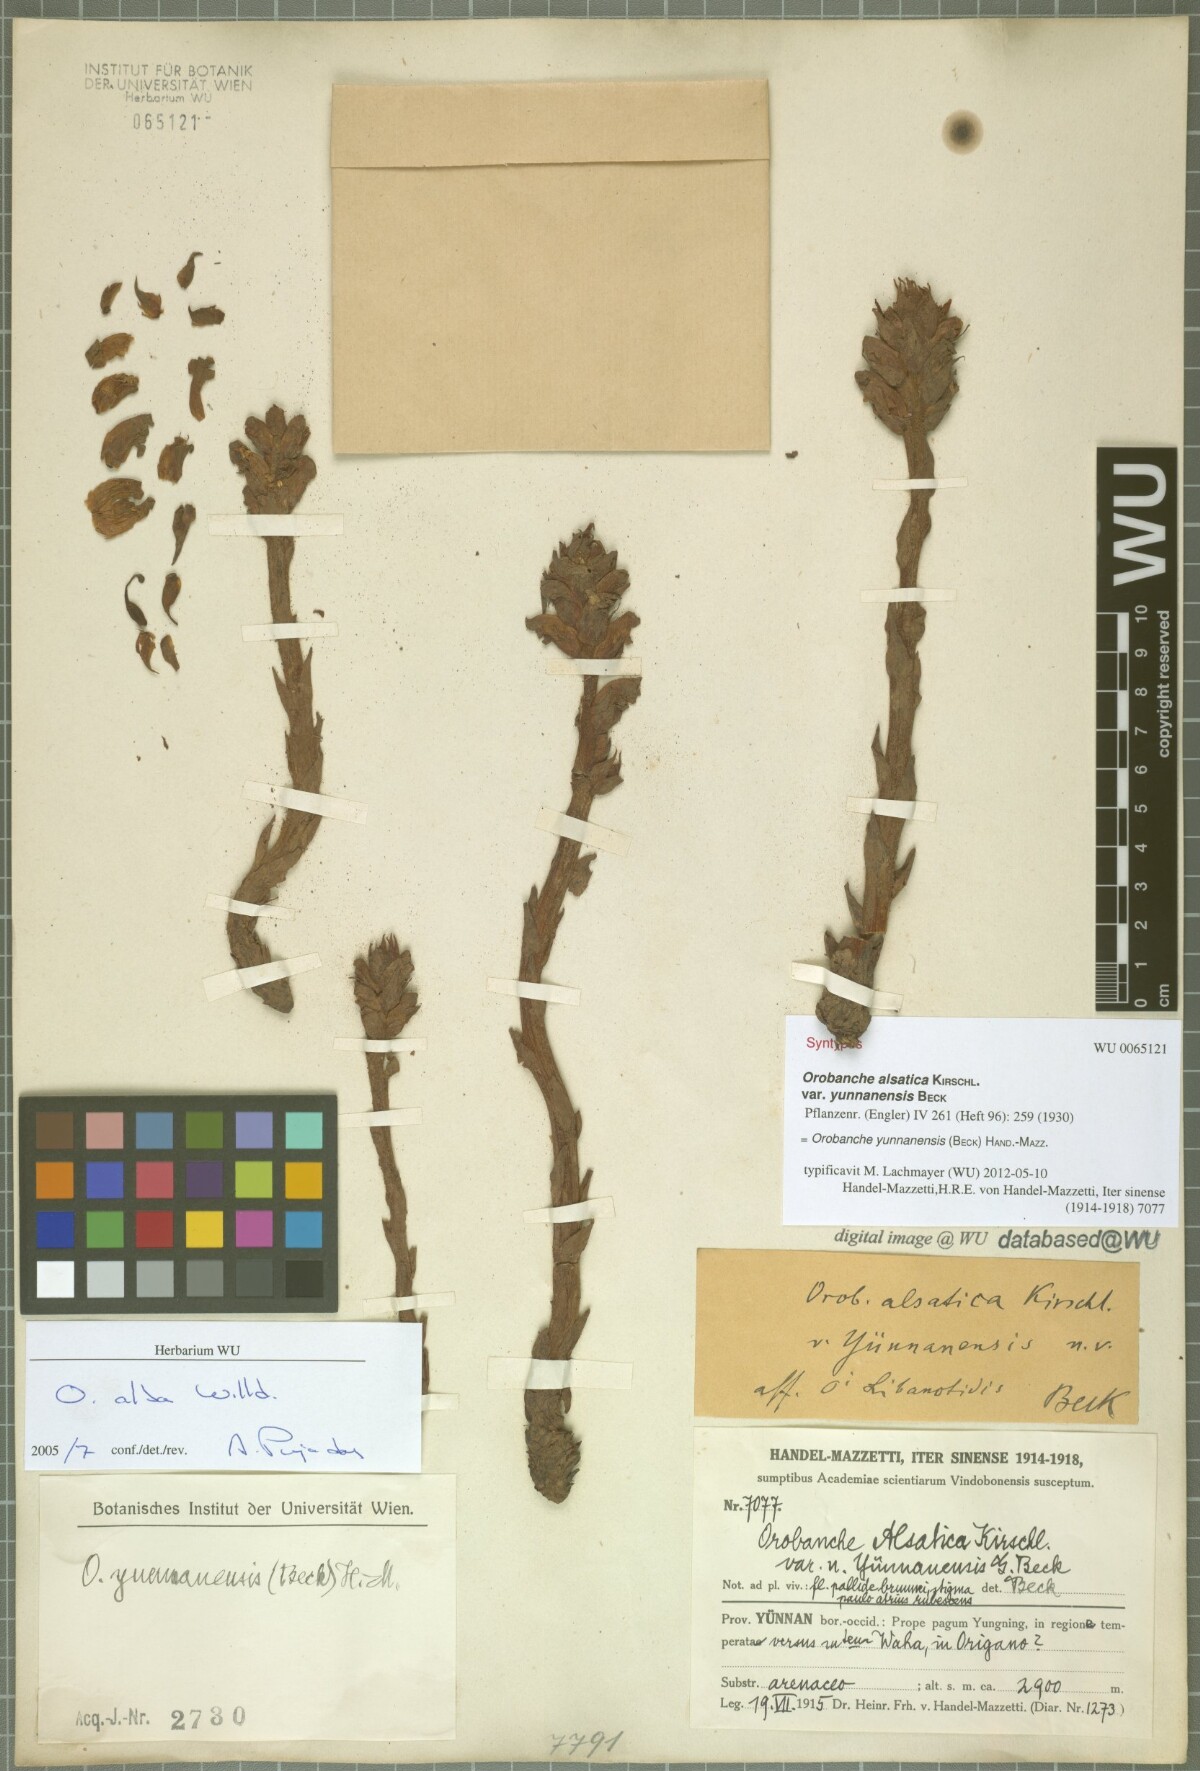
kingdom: Plantae
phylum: Tracheophyta
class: Magnoliopsida
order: Lamiales
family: Orobanchaceae
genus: Orobanche
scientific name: Orobanche yunnanensis
